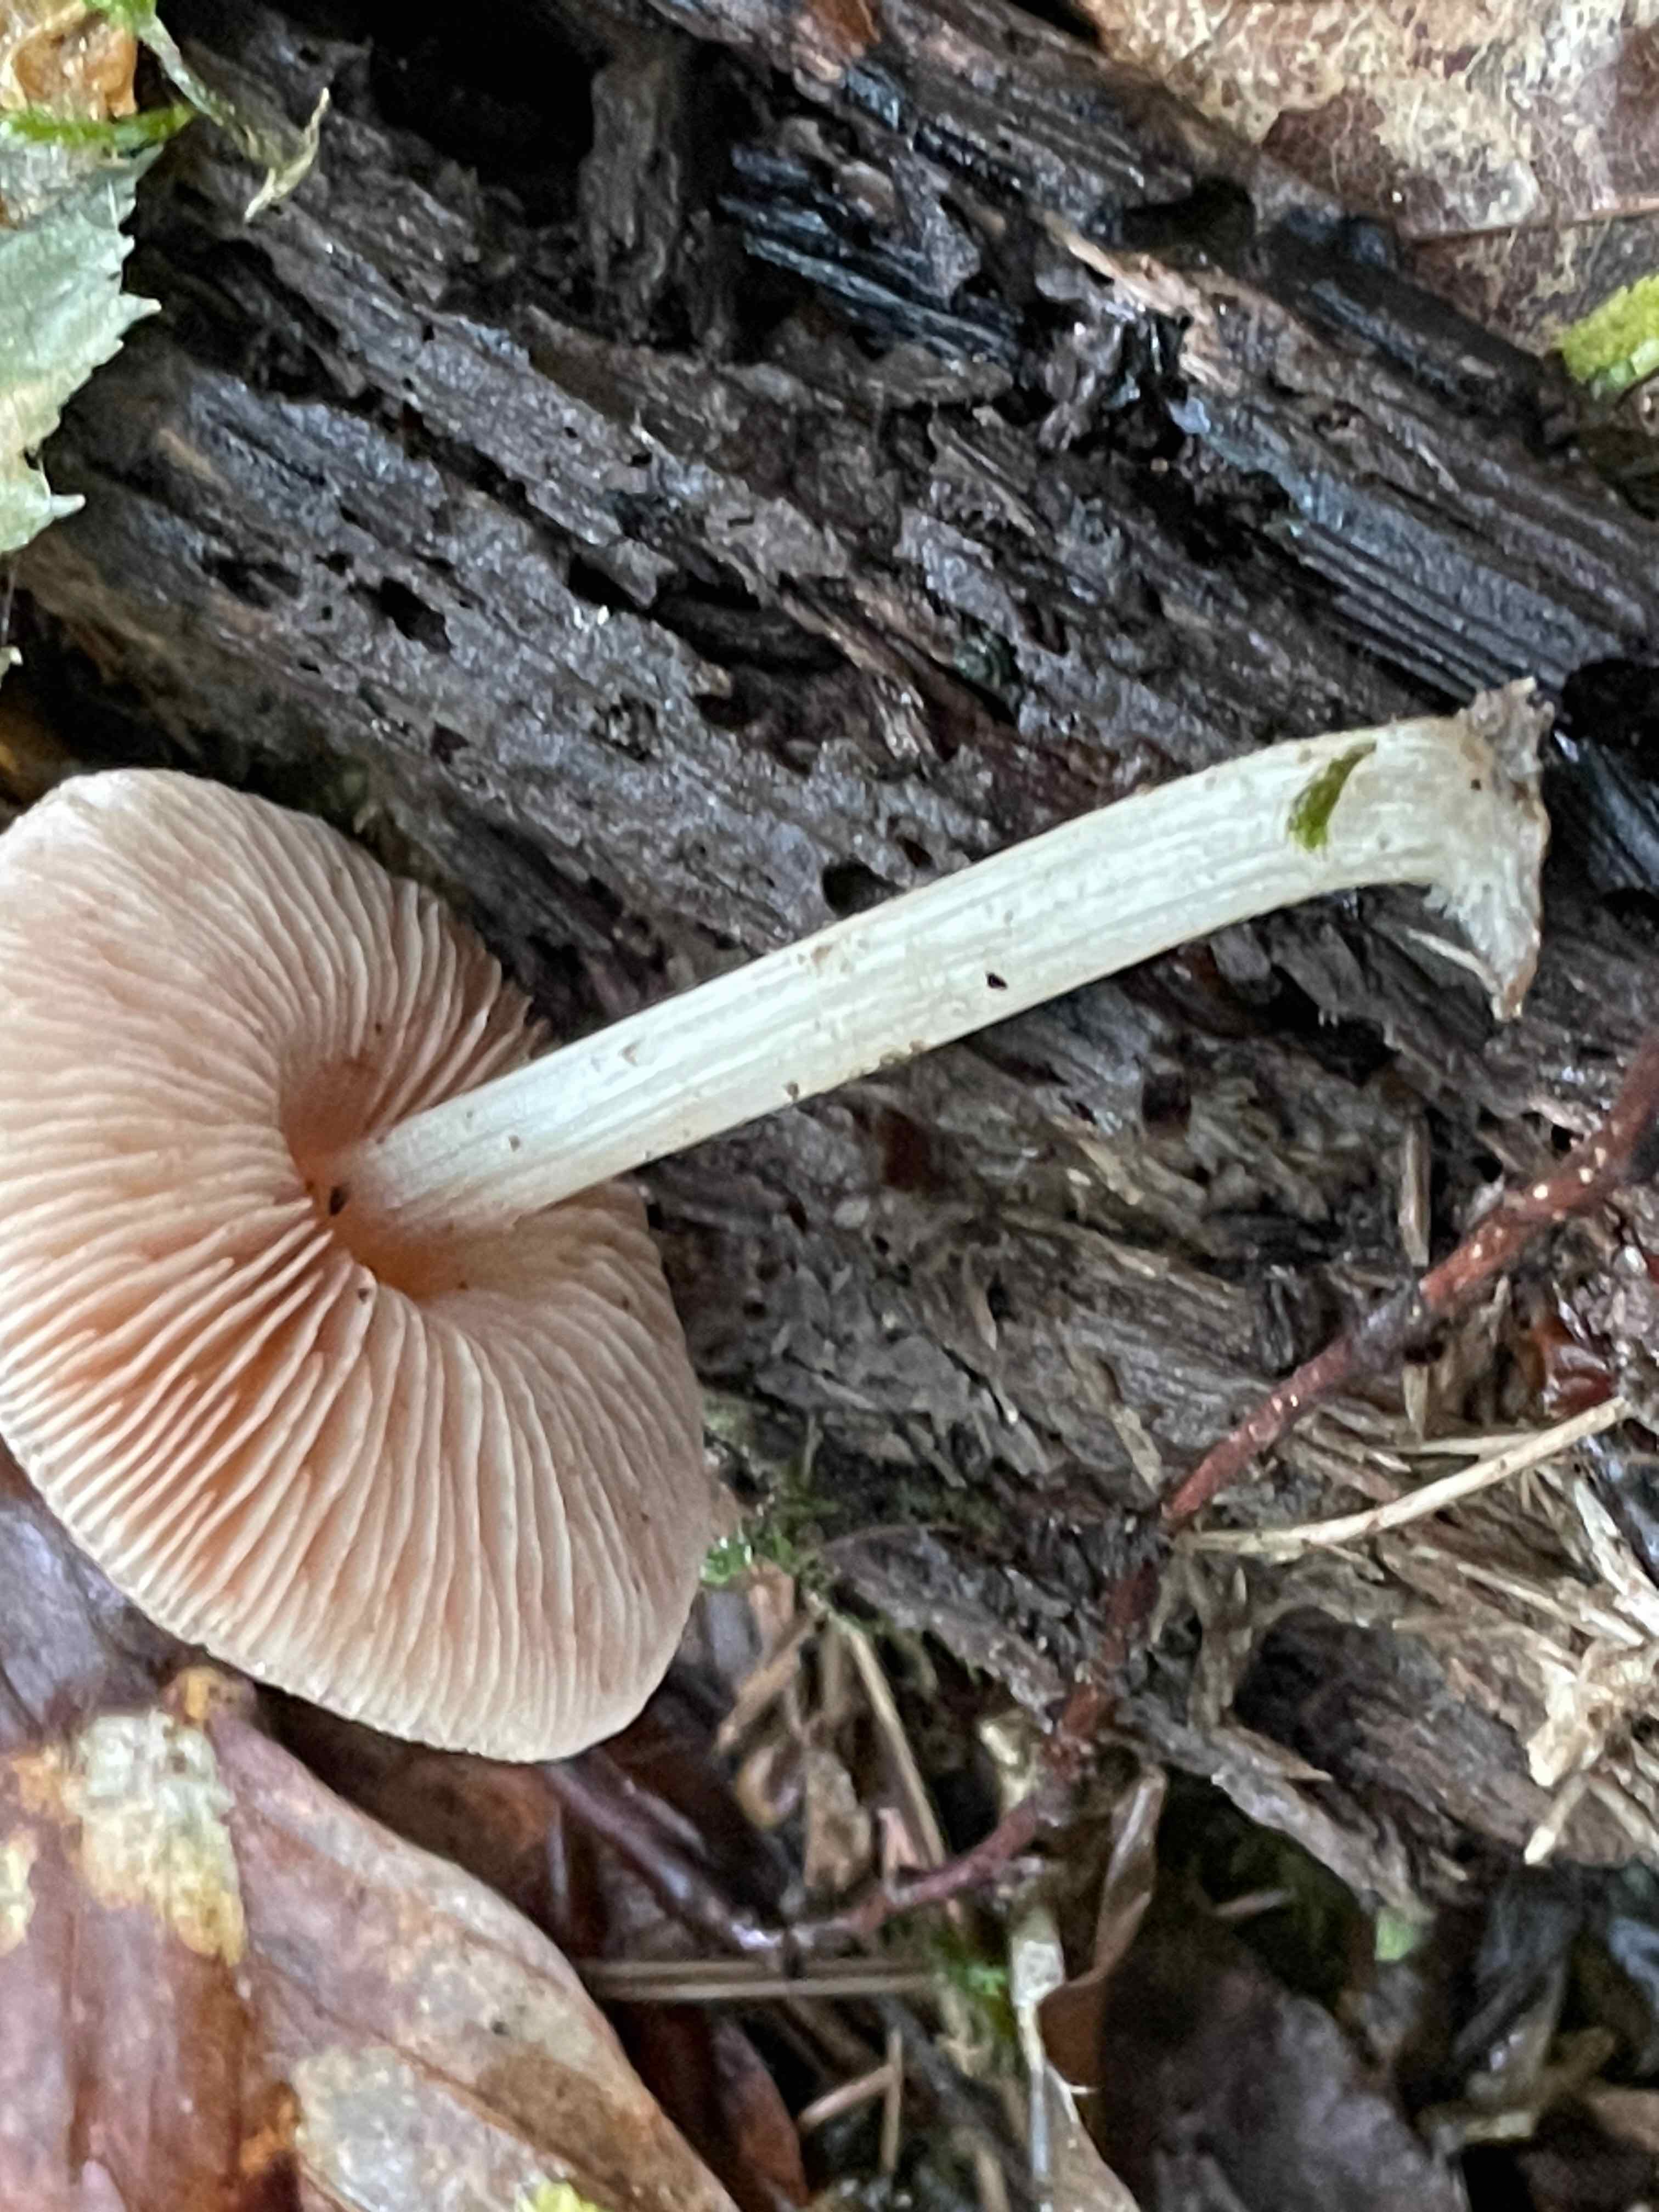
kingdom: Fungi
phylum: Basidiomycota
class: Agaricomycetes
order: Agaricales
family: Pluteaceae
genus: Pluteus
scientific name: Pluteus phlebophorus
